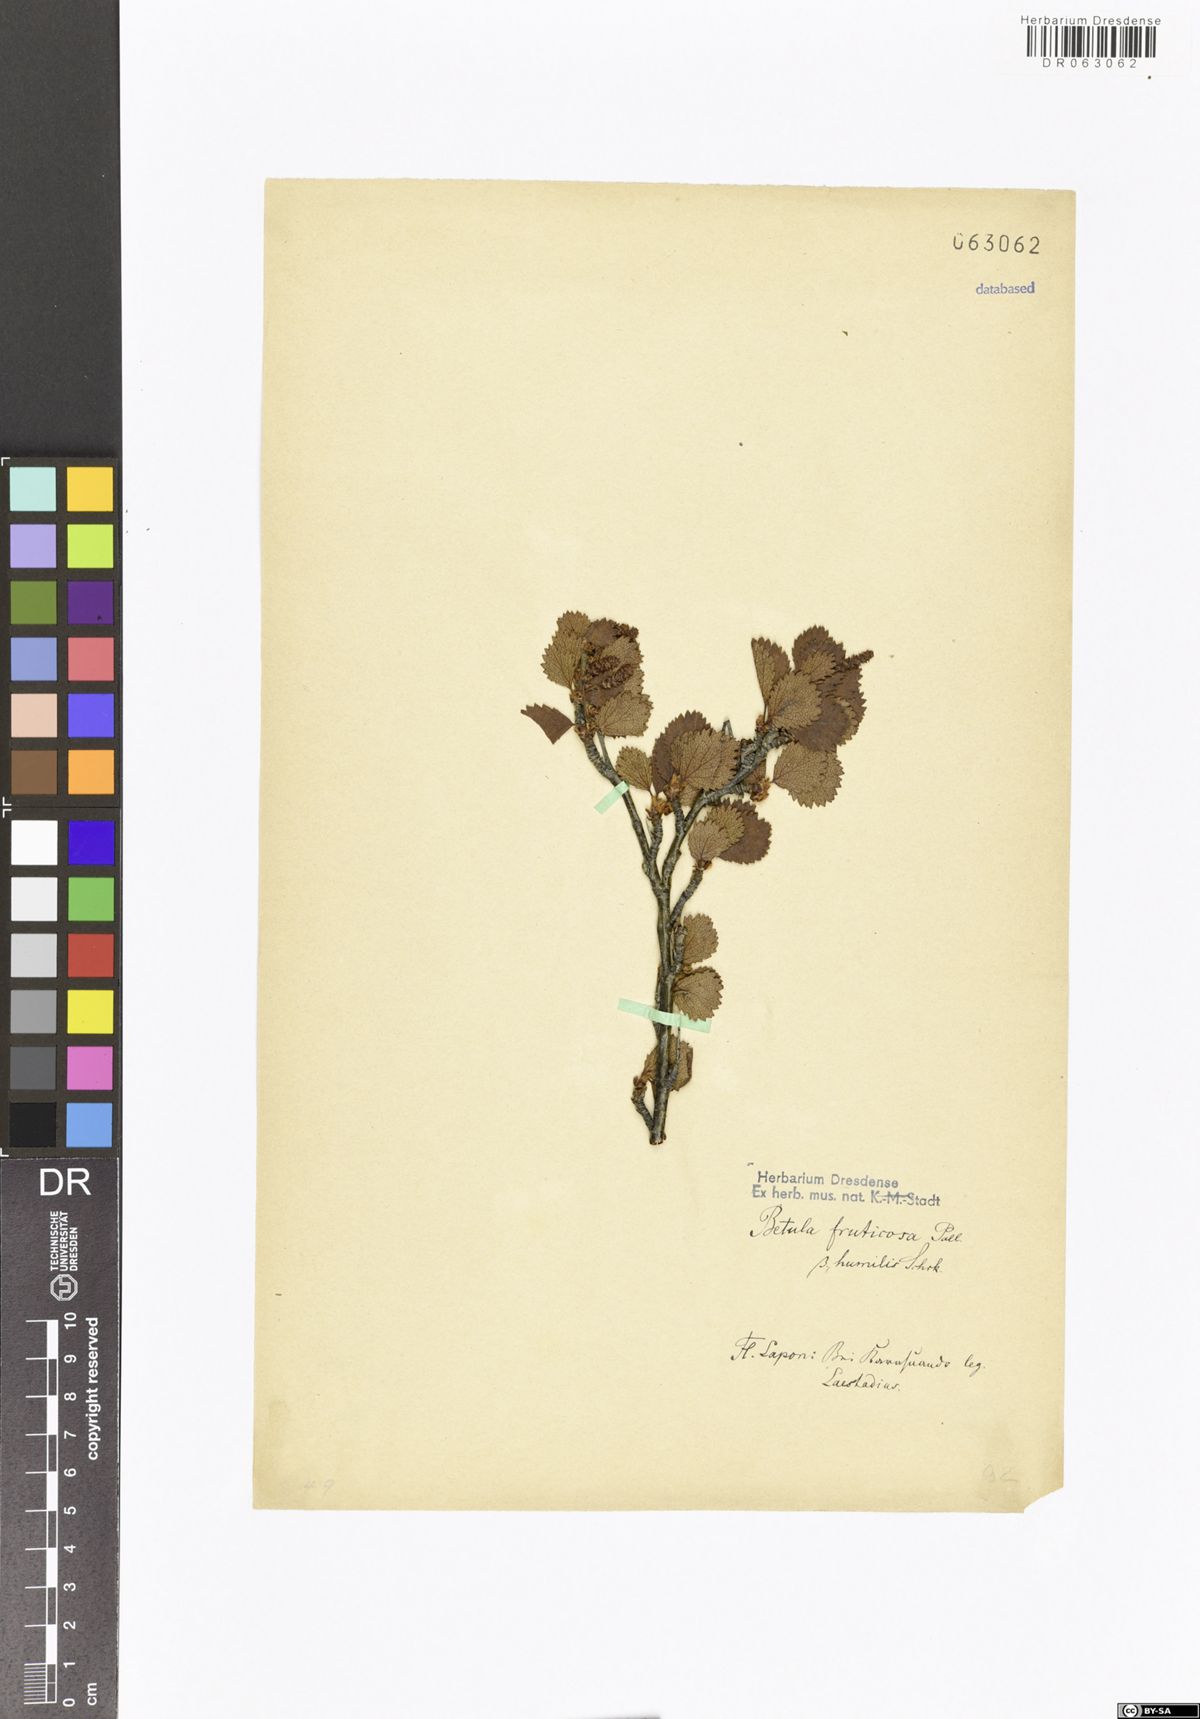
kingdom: Plantae
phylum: Tracheophyta
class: Magnoliopsida
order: Fagales
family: Betulaceae
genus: Betula
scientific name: Betula fruticosa
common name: Japanese bog birch
